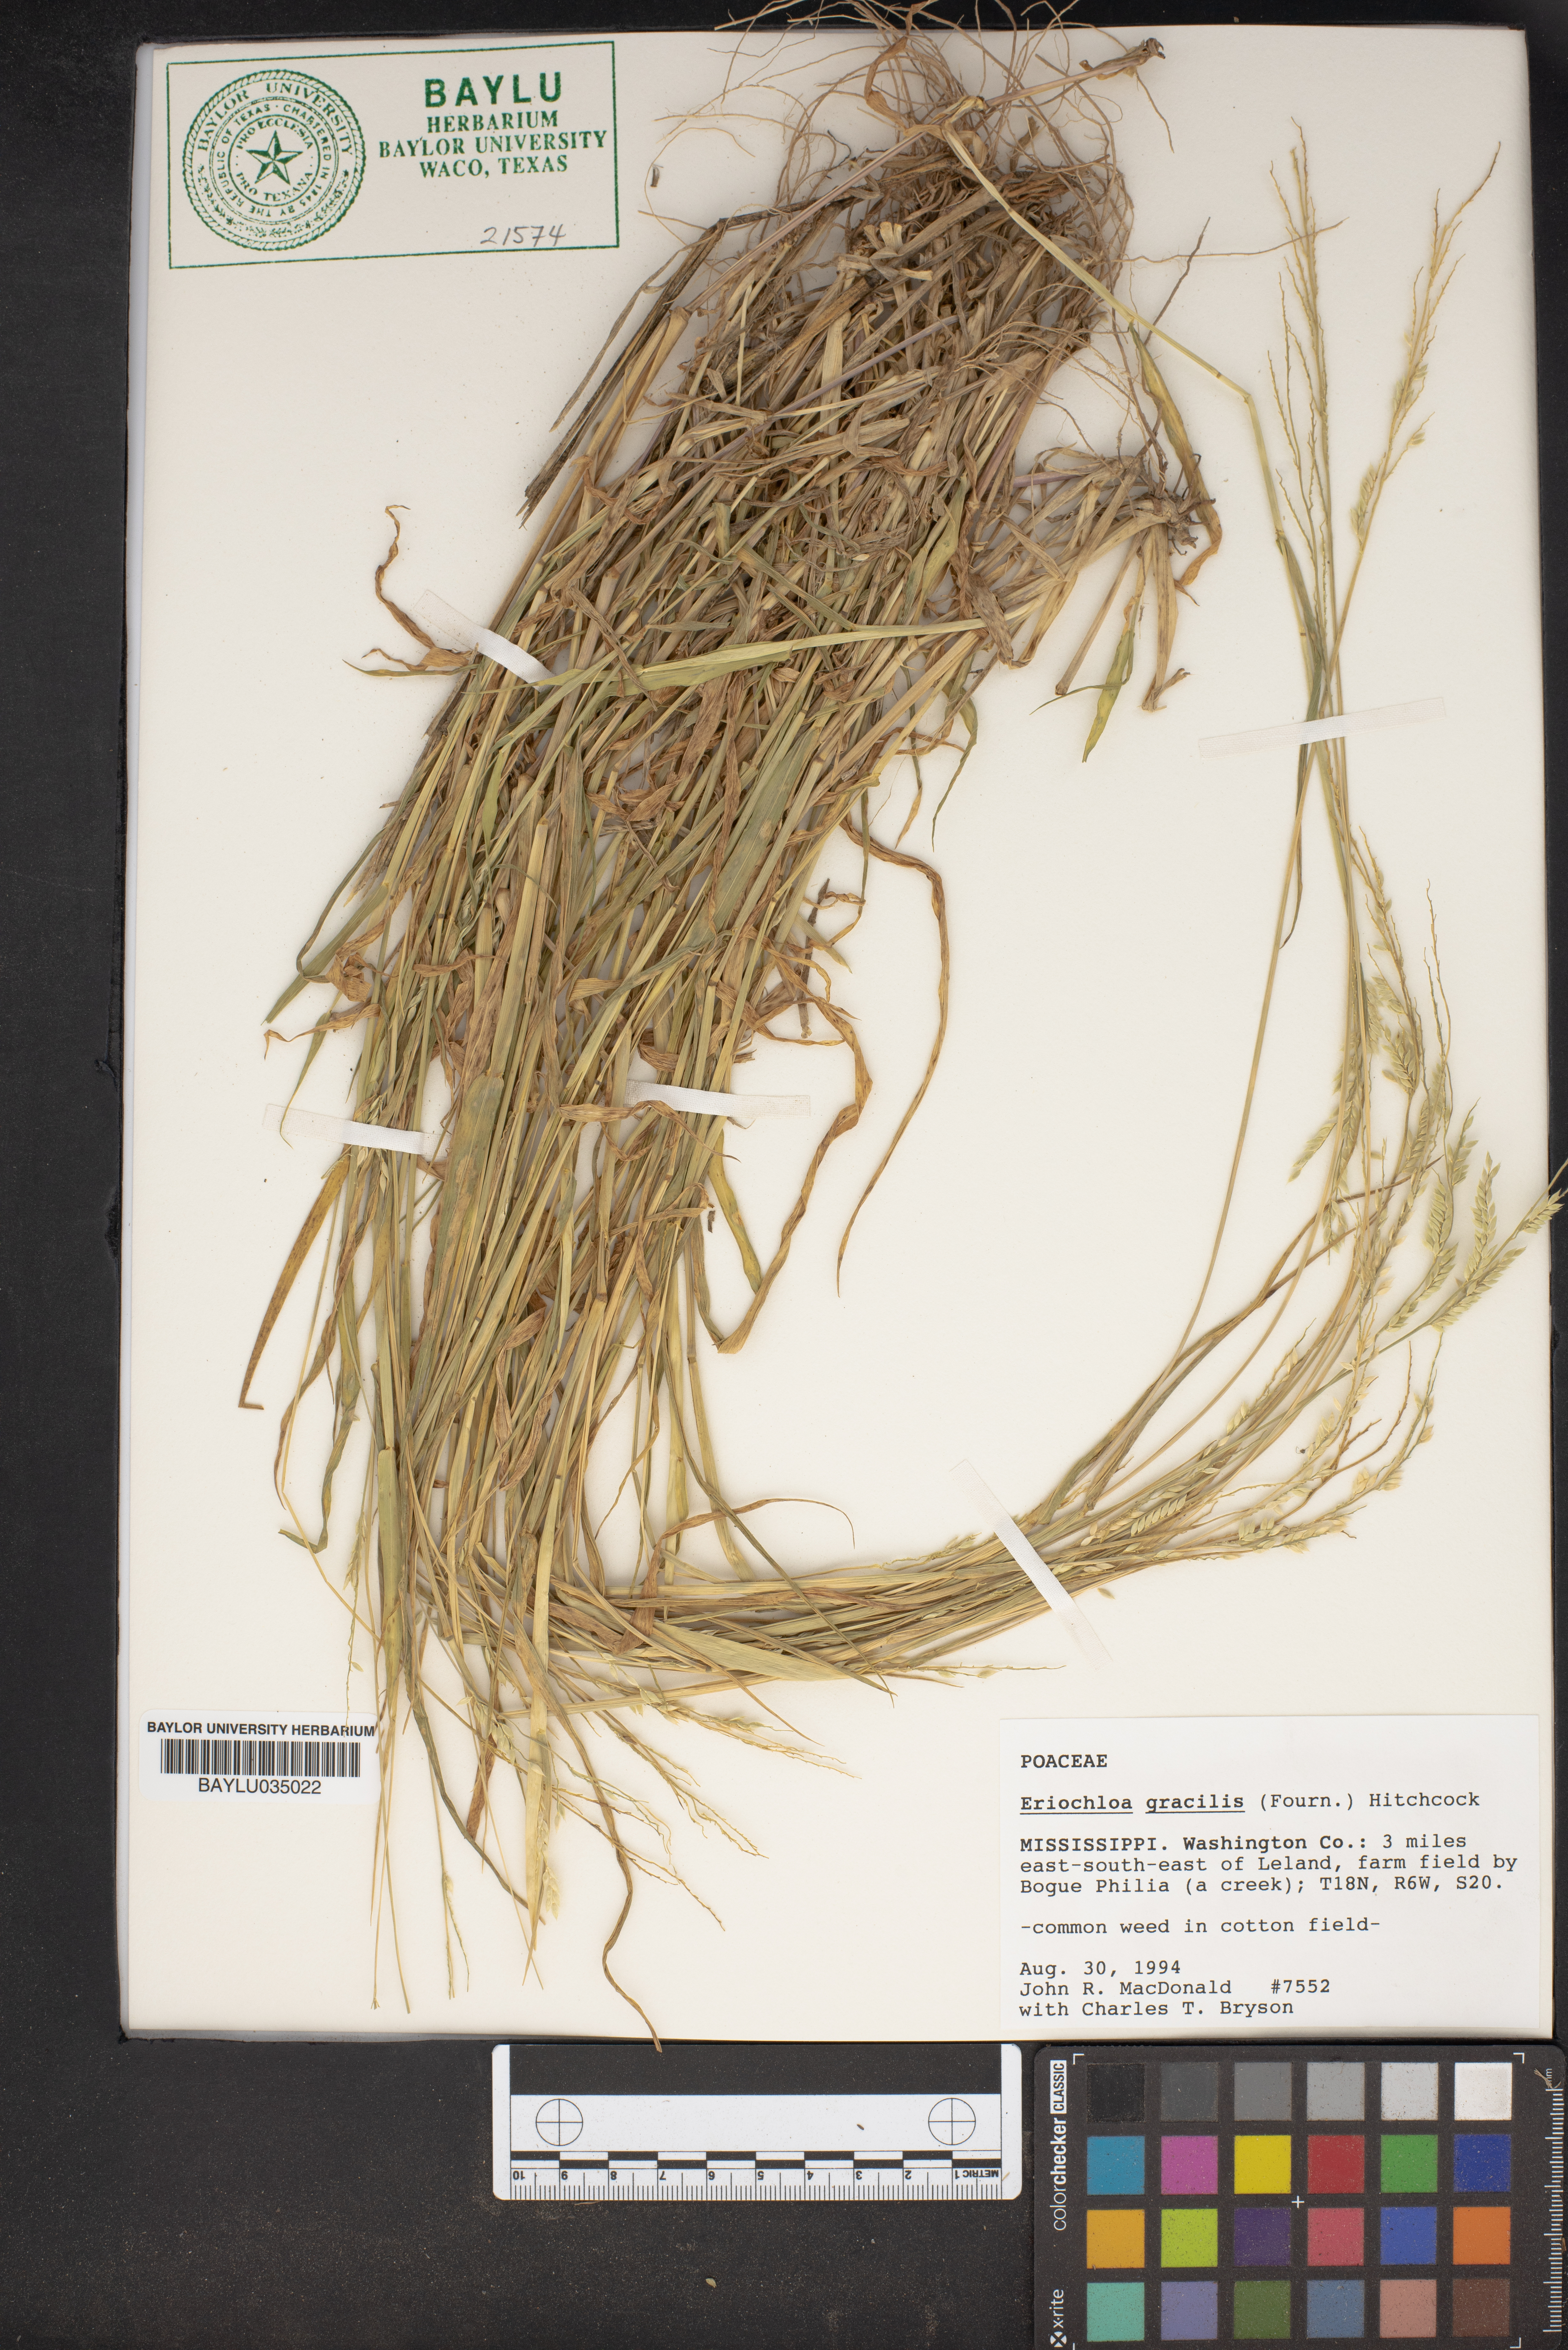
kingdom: Plantae
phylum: Tracheophyta
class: Liliopsida
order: Poales
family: Poaceae
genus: Eriochloa
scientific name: Eriochloa acuminata
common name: Southwestern cup grass
